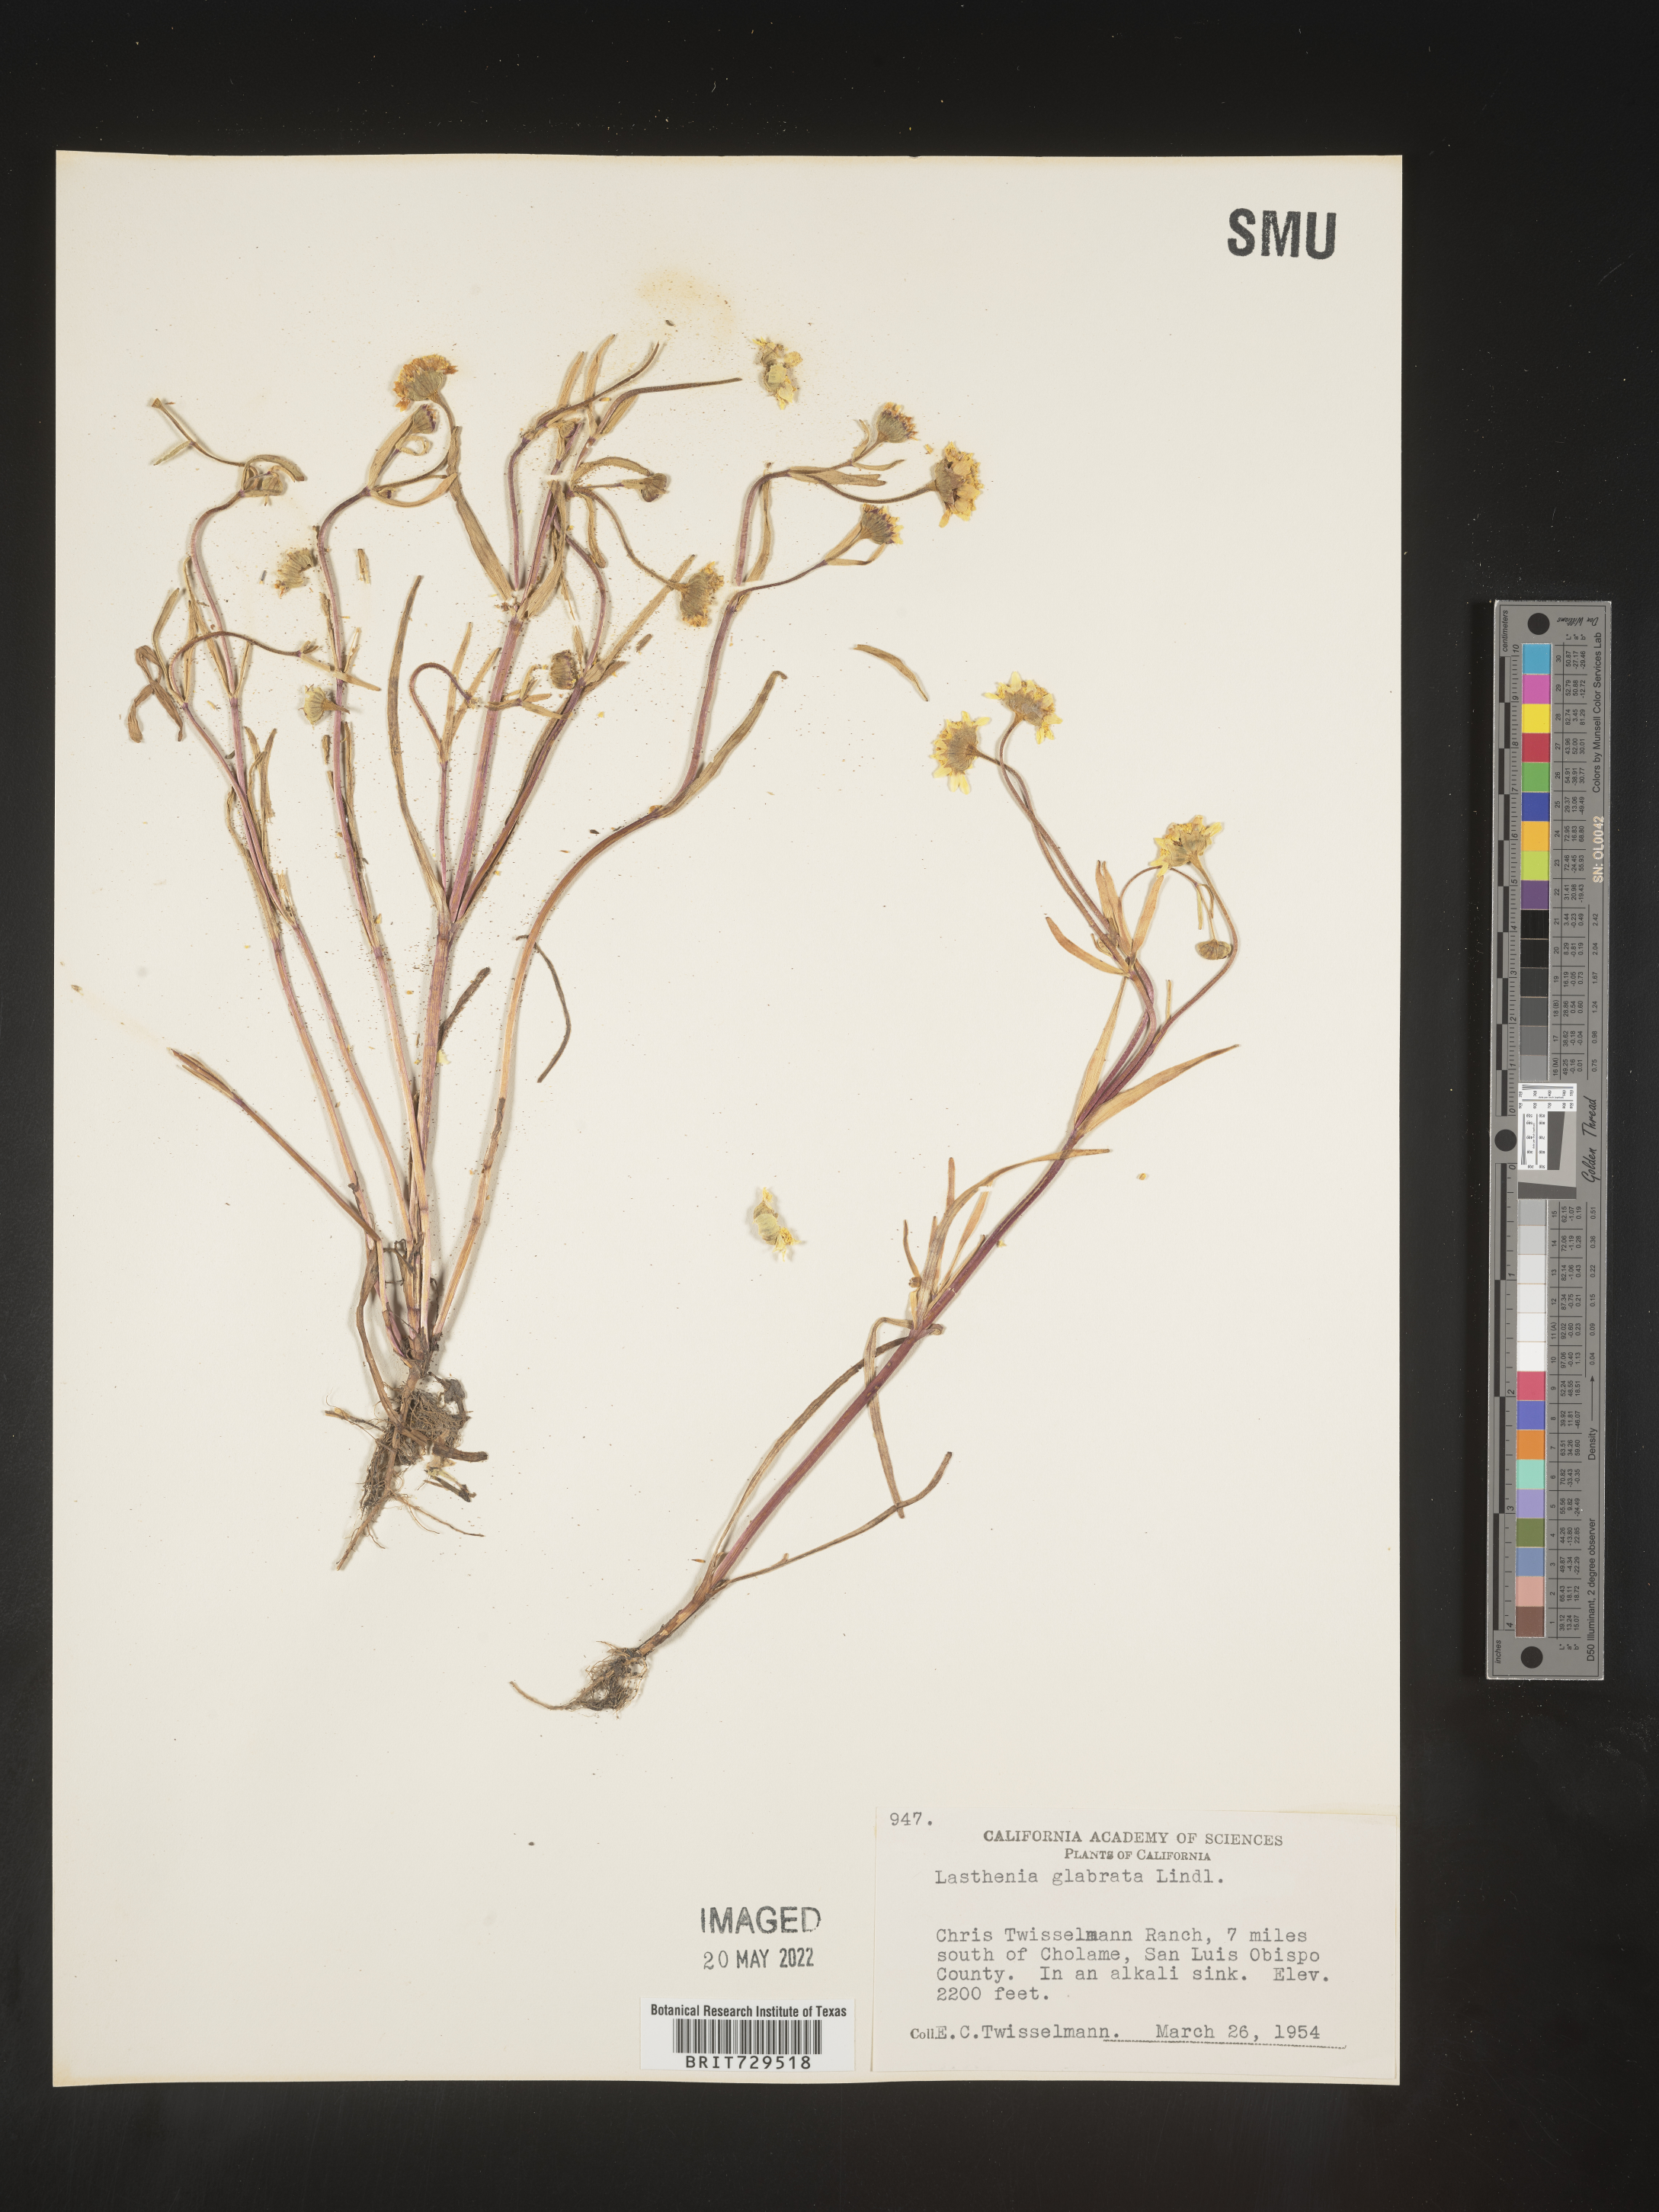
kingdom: Plantae
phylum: Tracheophyta
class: Magnoliopsida
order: Asterales
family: Asteraceae
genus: Lasthenia
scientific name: Lasthenia
